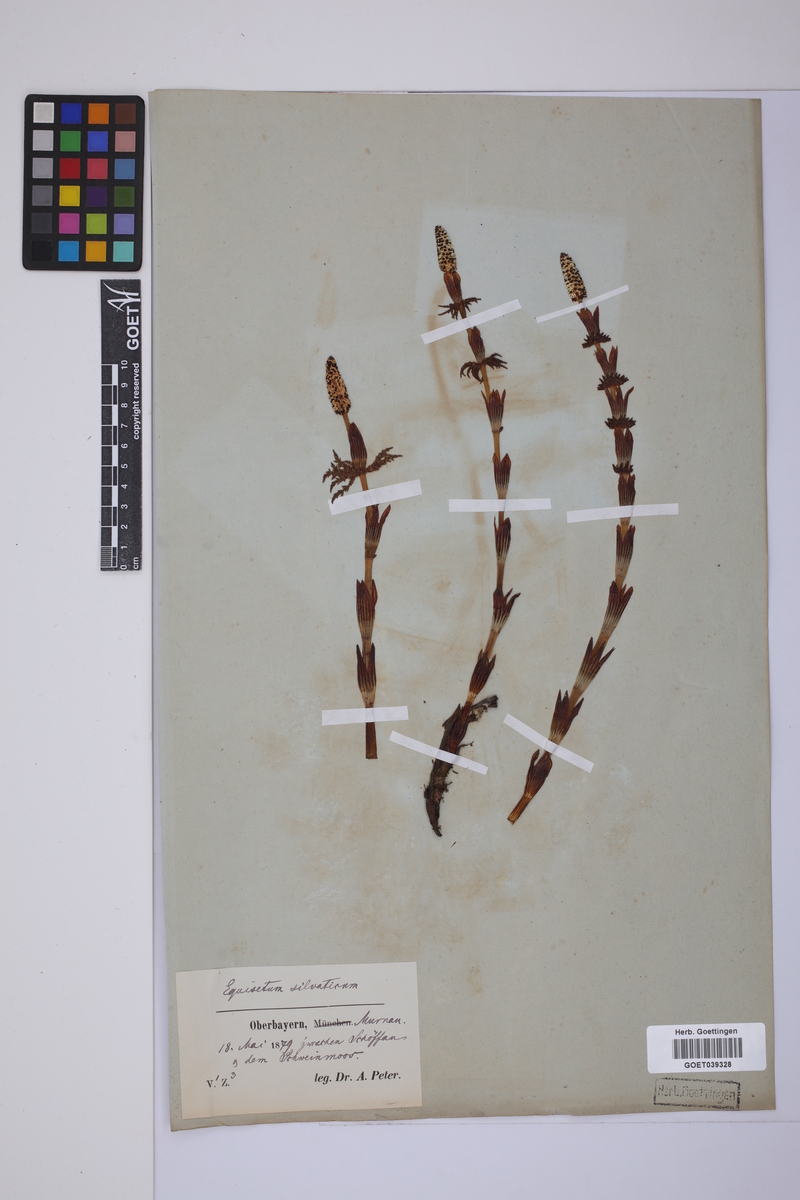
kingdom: Plantae
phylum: Tracheophyta
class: Polypodiopsida
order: Equisetales
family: Equisetaceae
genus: Equisetum
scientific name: Equisetum sylvaticum
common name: Wood horsetail
